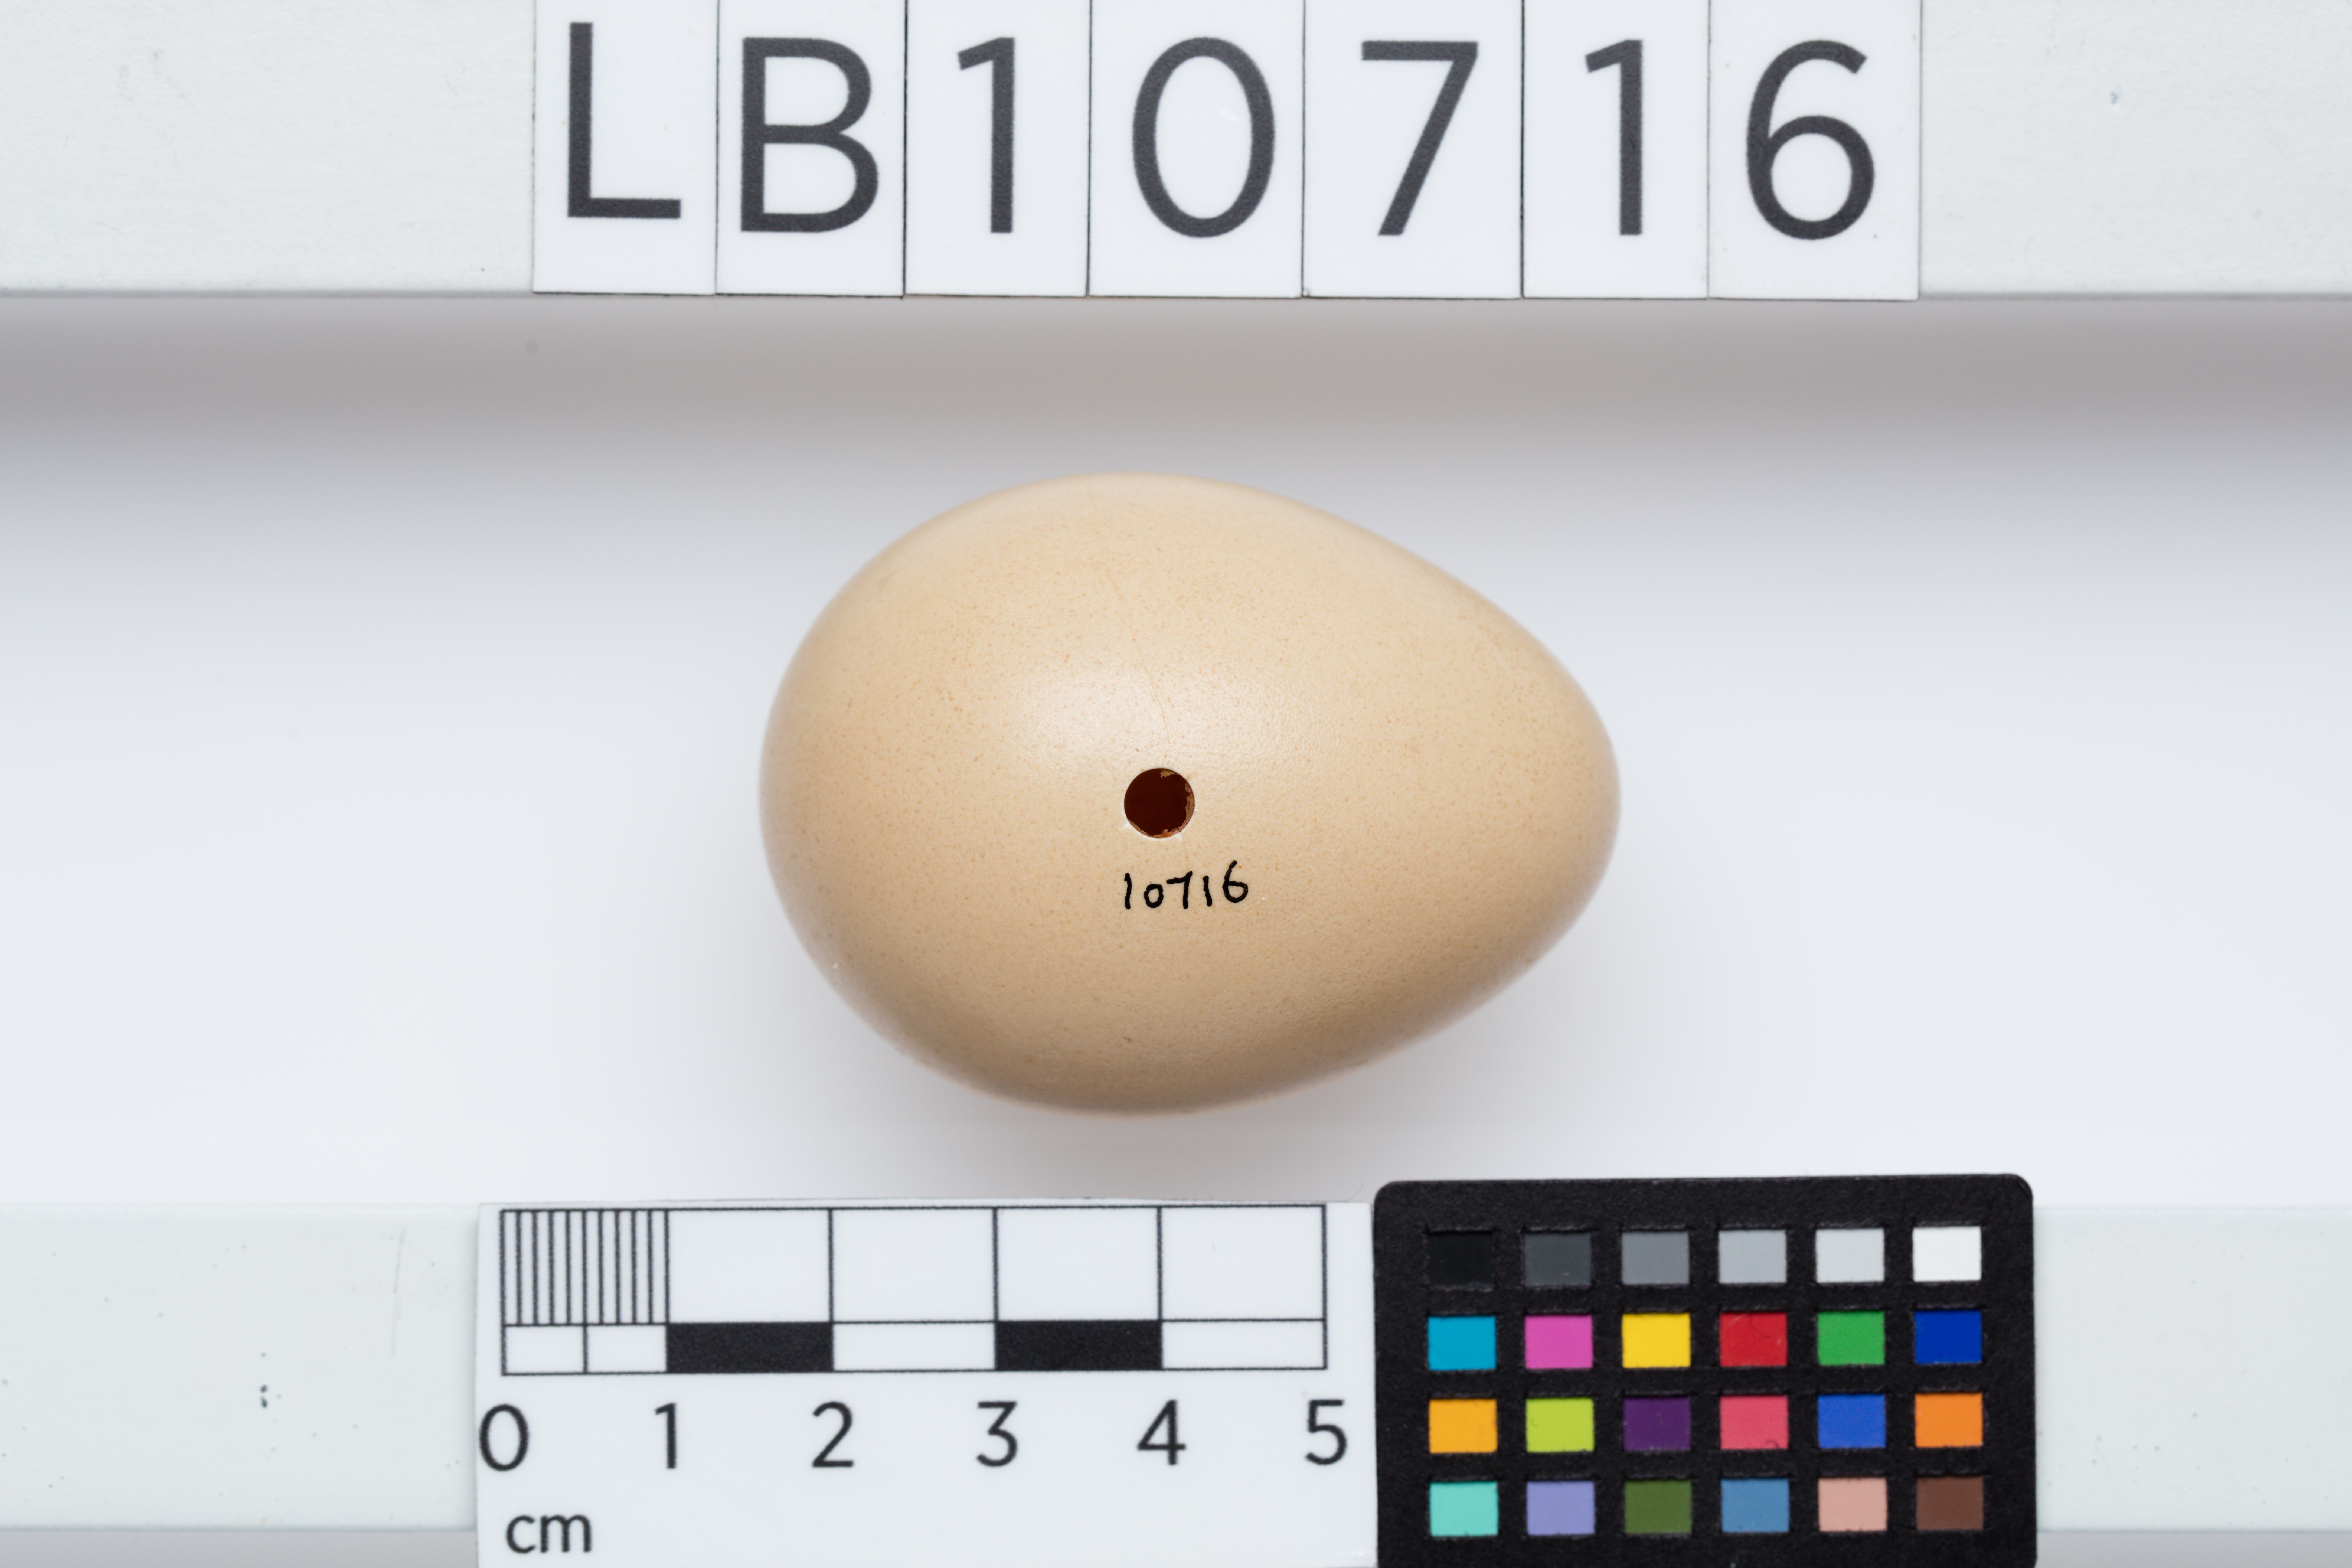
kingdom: Animalia
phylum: Chordata
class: Aves
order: Galliformes
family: Phasianidae
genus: Chrysolophus
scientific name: Chrysolophus pictus
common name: Golden pheasant
